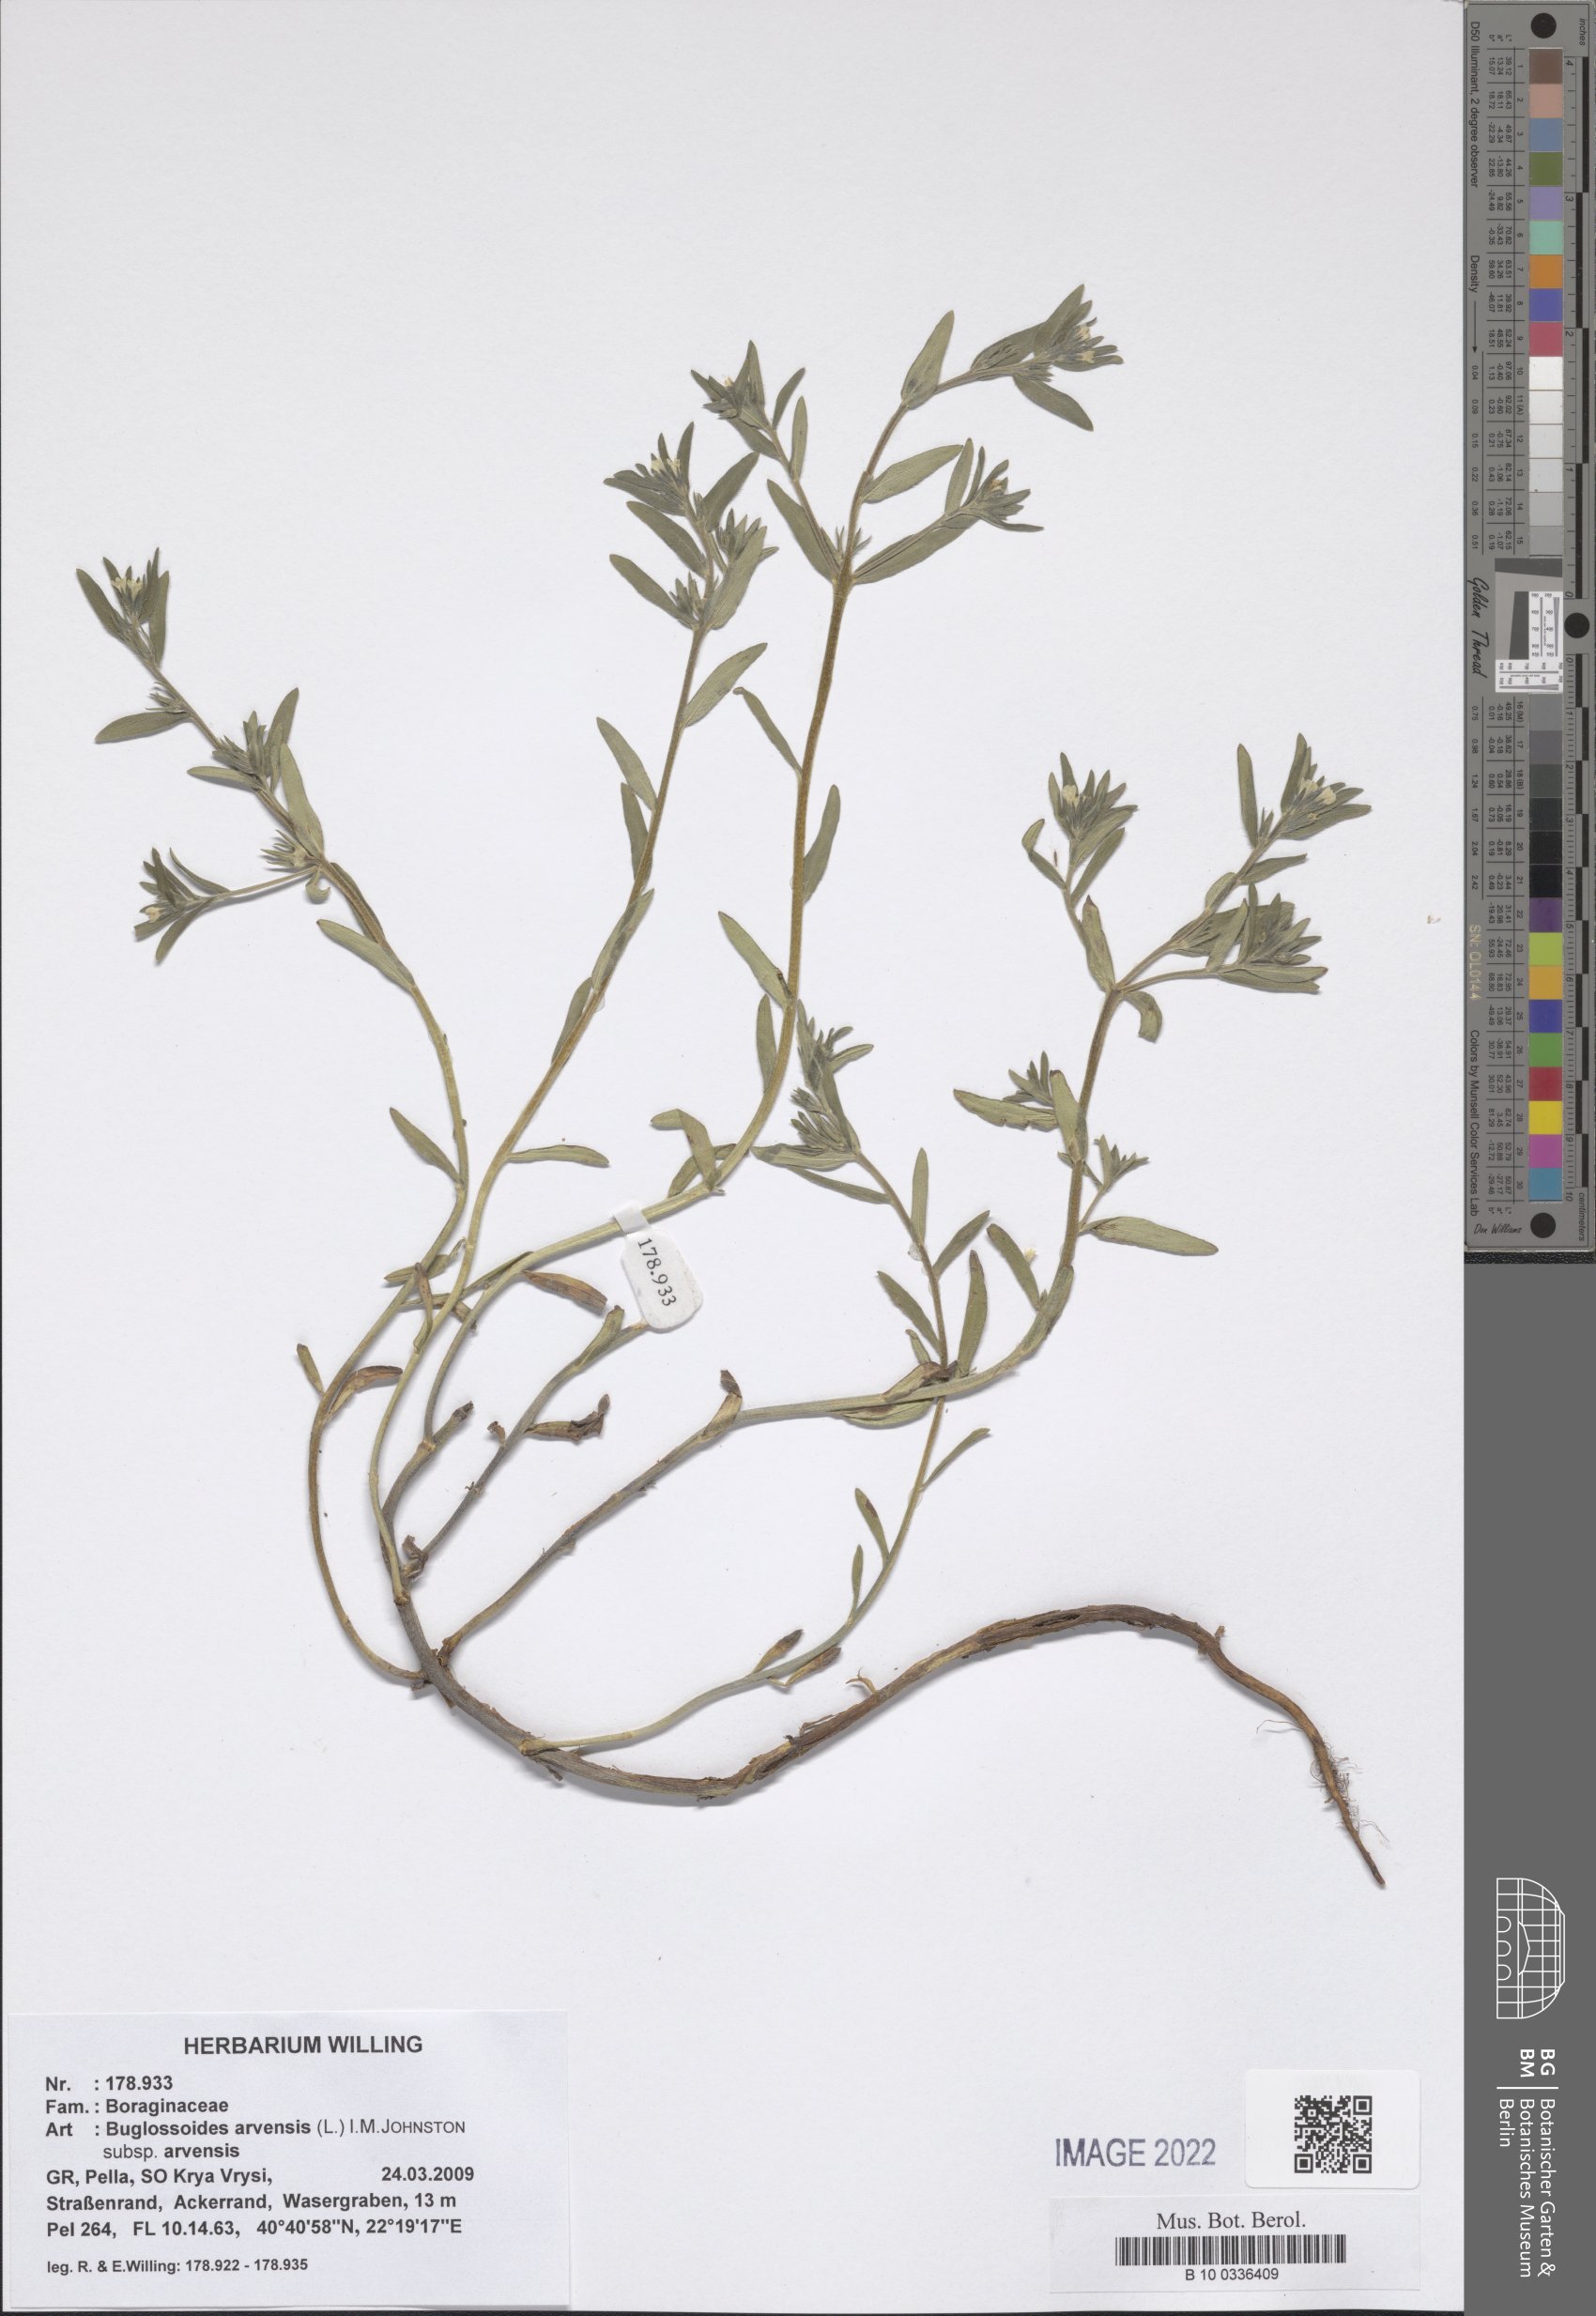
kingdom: Plantae
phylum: Tracheophyta
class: Magnoliopsida
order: Boraginales
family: Boraginaceae
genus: Buglossoides
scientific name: Buglossoides arvensis
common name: Corn gromwell
